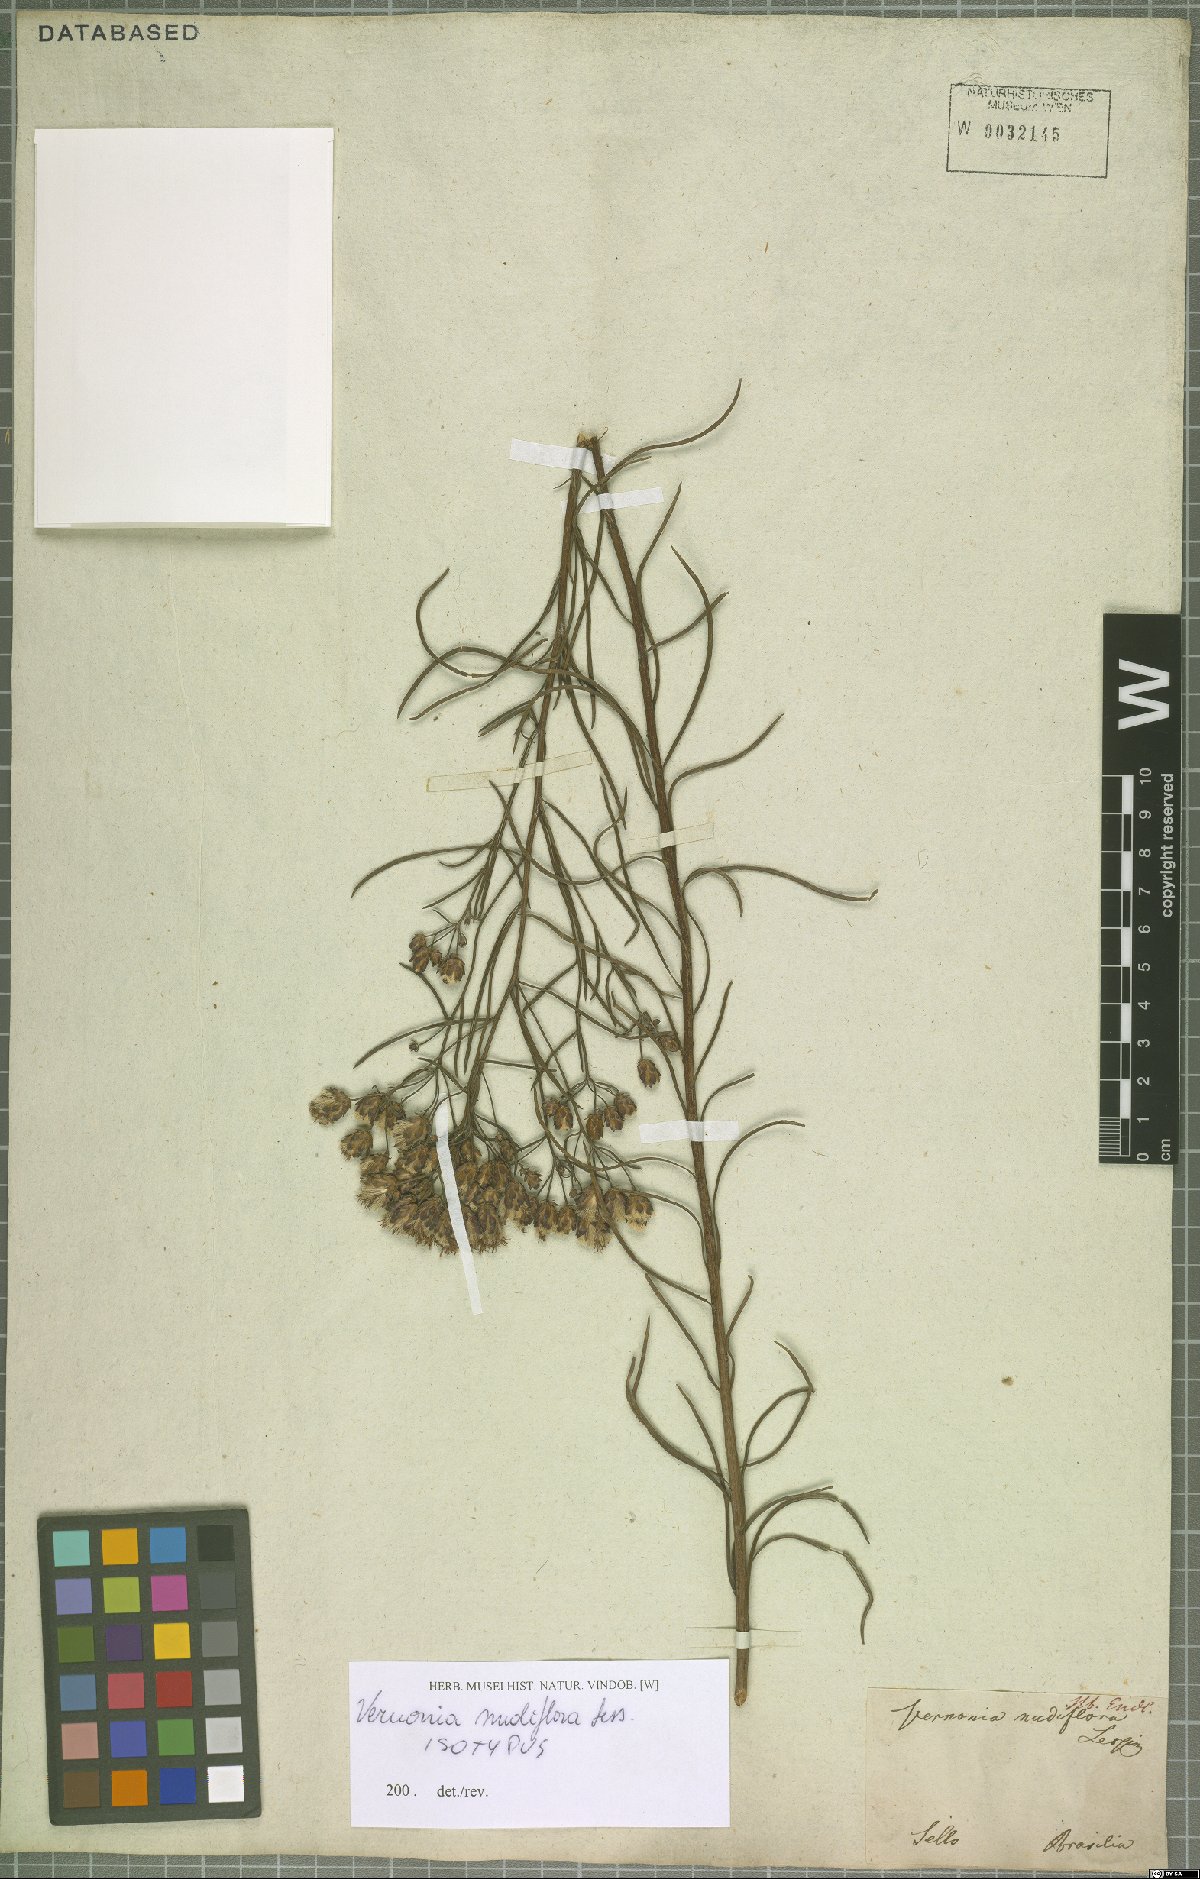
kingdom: Plantae
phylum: Tracheophyta
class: Magnoliopsida
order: Asterales
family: Asteraceae
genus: Vernonanthura
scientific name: Vernonanthura nudiflora
